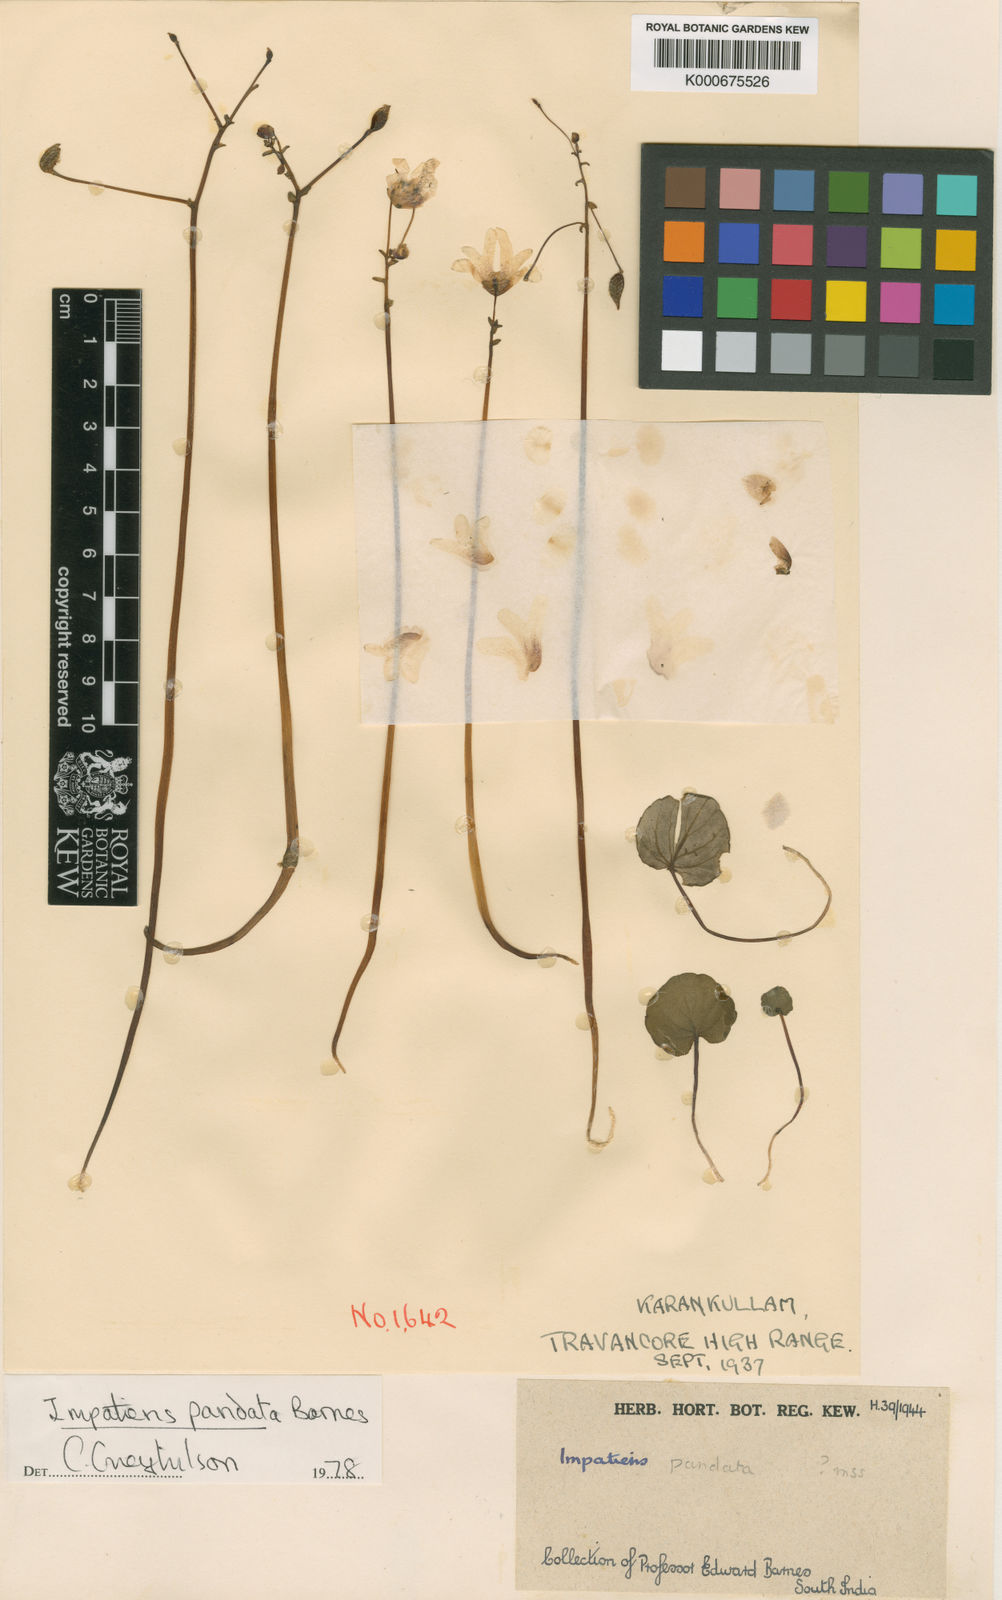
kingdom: Plantae
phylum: Tracheophyta
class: Magnoliopsida
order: Ericales
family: Balsaminaceae
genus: Impatiens
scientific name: Impatiens pandata
